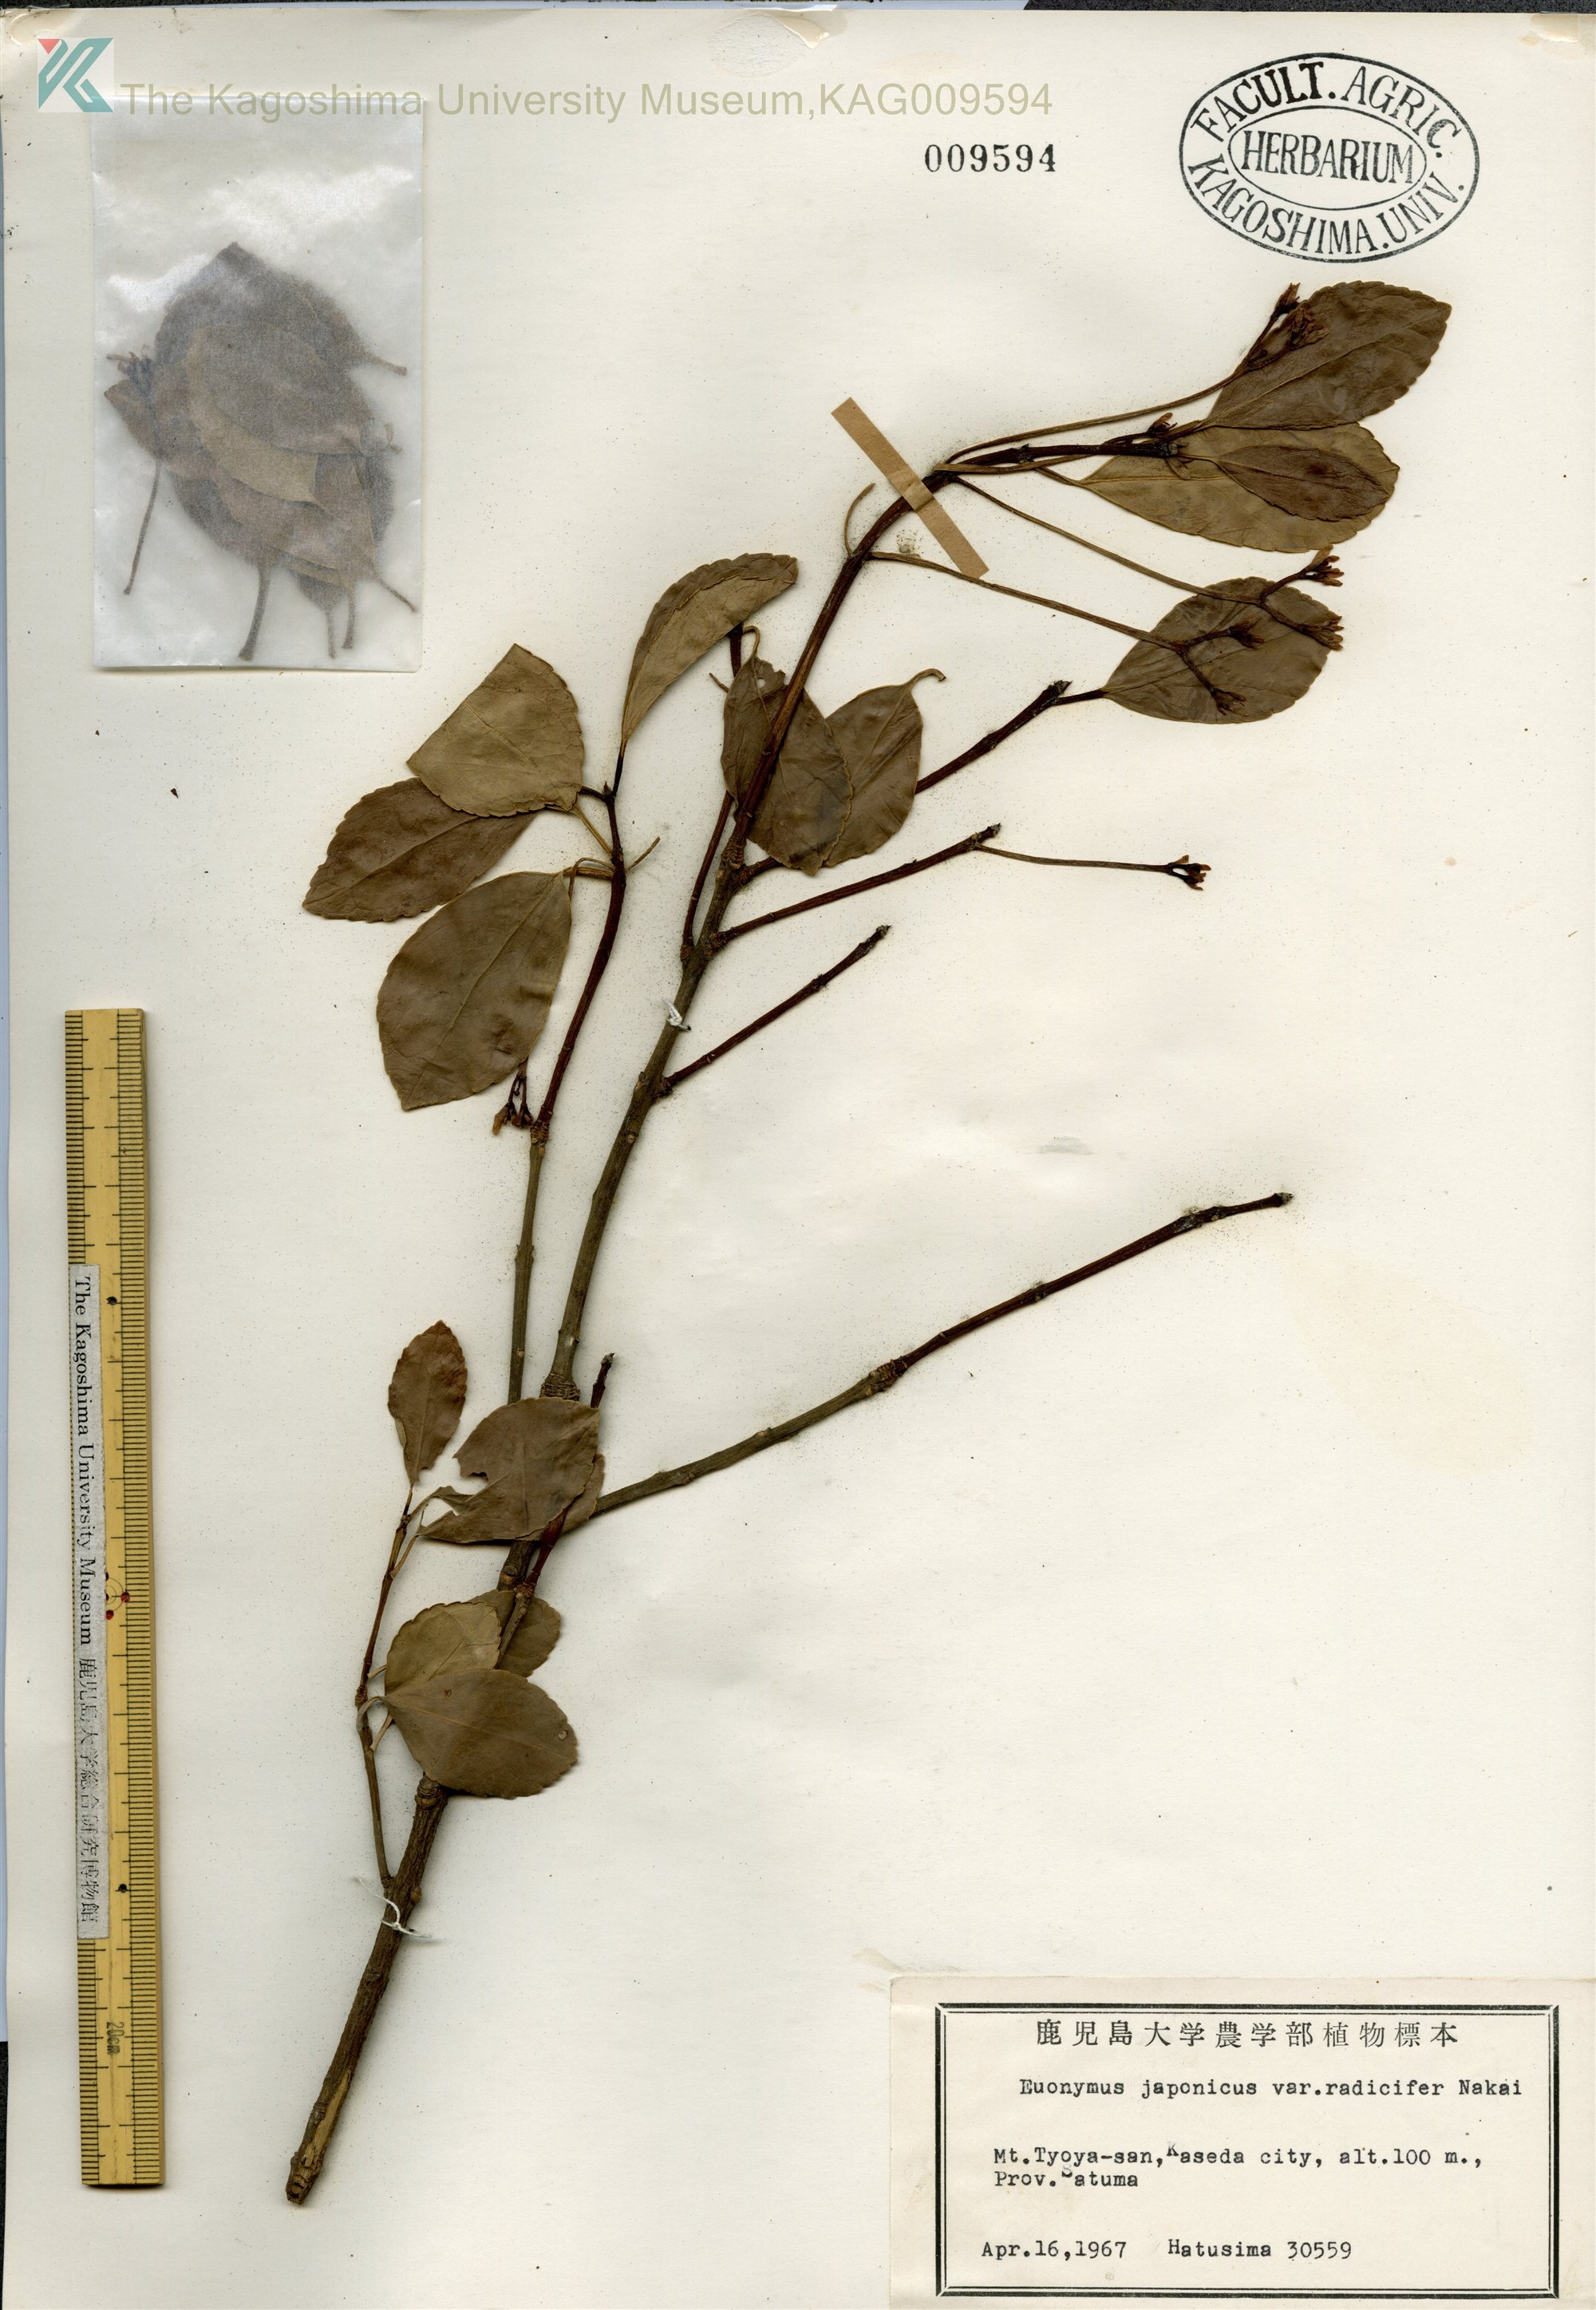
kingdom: Plantae
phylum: Tracheophyta
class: Magnoliopsida
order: Celastrales
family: Celastraceae
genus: Euonymus
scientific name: Euonymus japonicus
